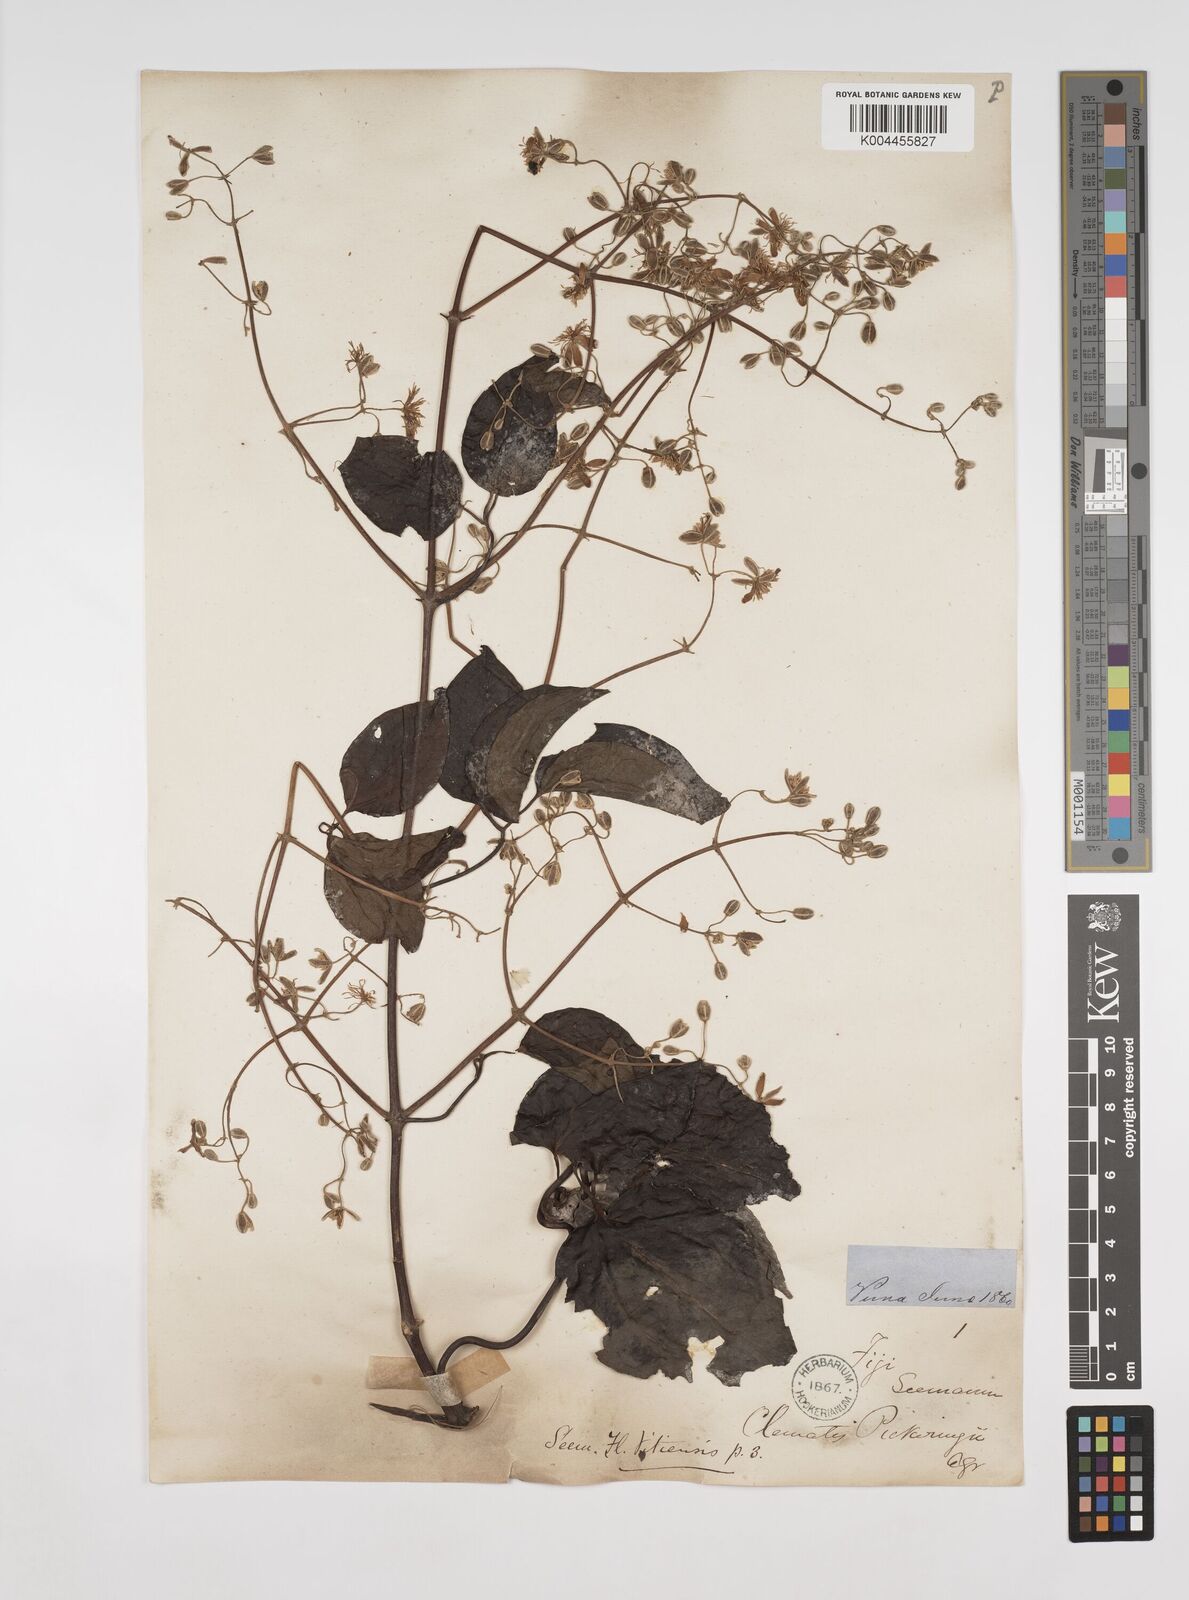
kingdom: Plantae
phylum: Tracheophyta
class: Magnoliopsida
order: Ranunculales
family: Ranunculaceae
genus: Clematis
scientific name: Clematis pickeringii
